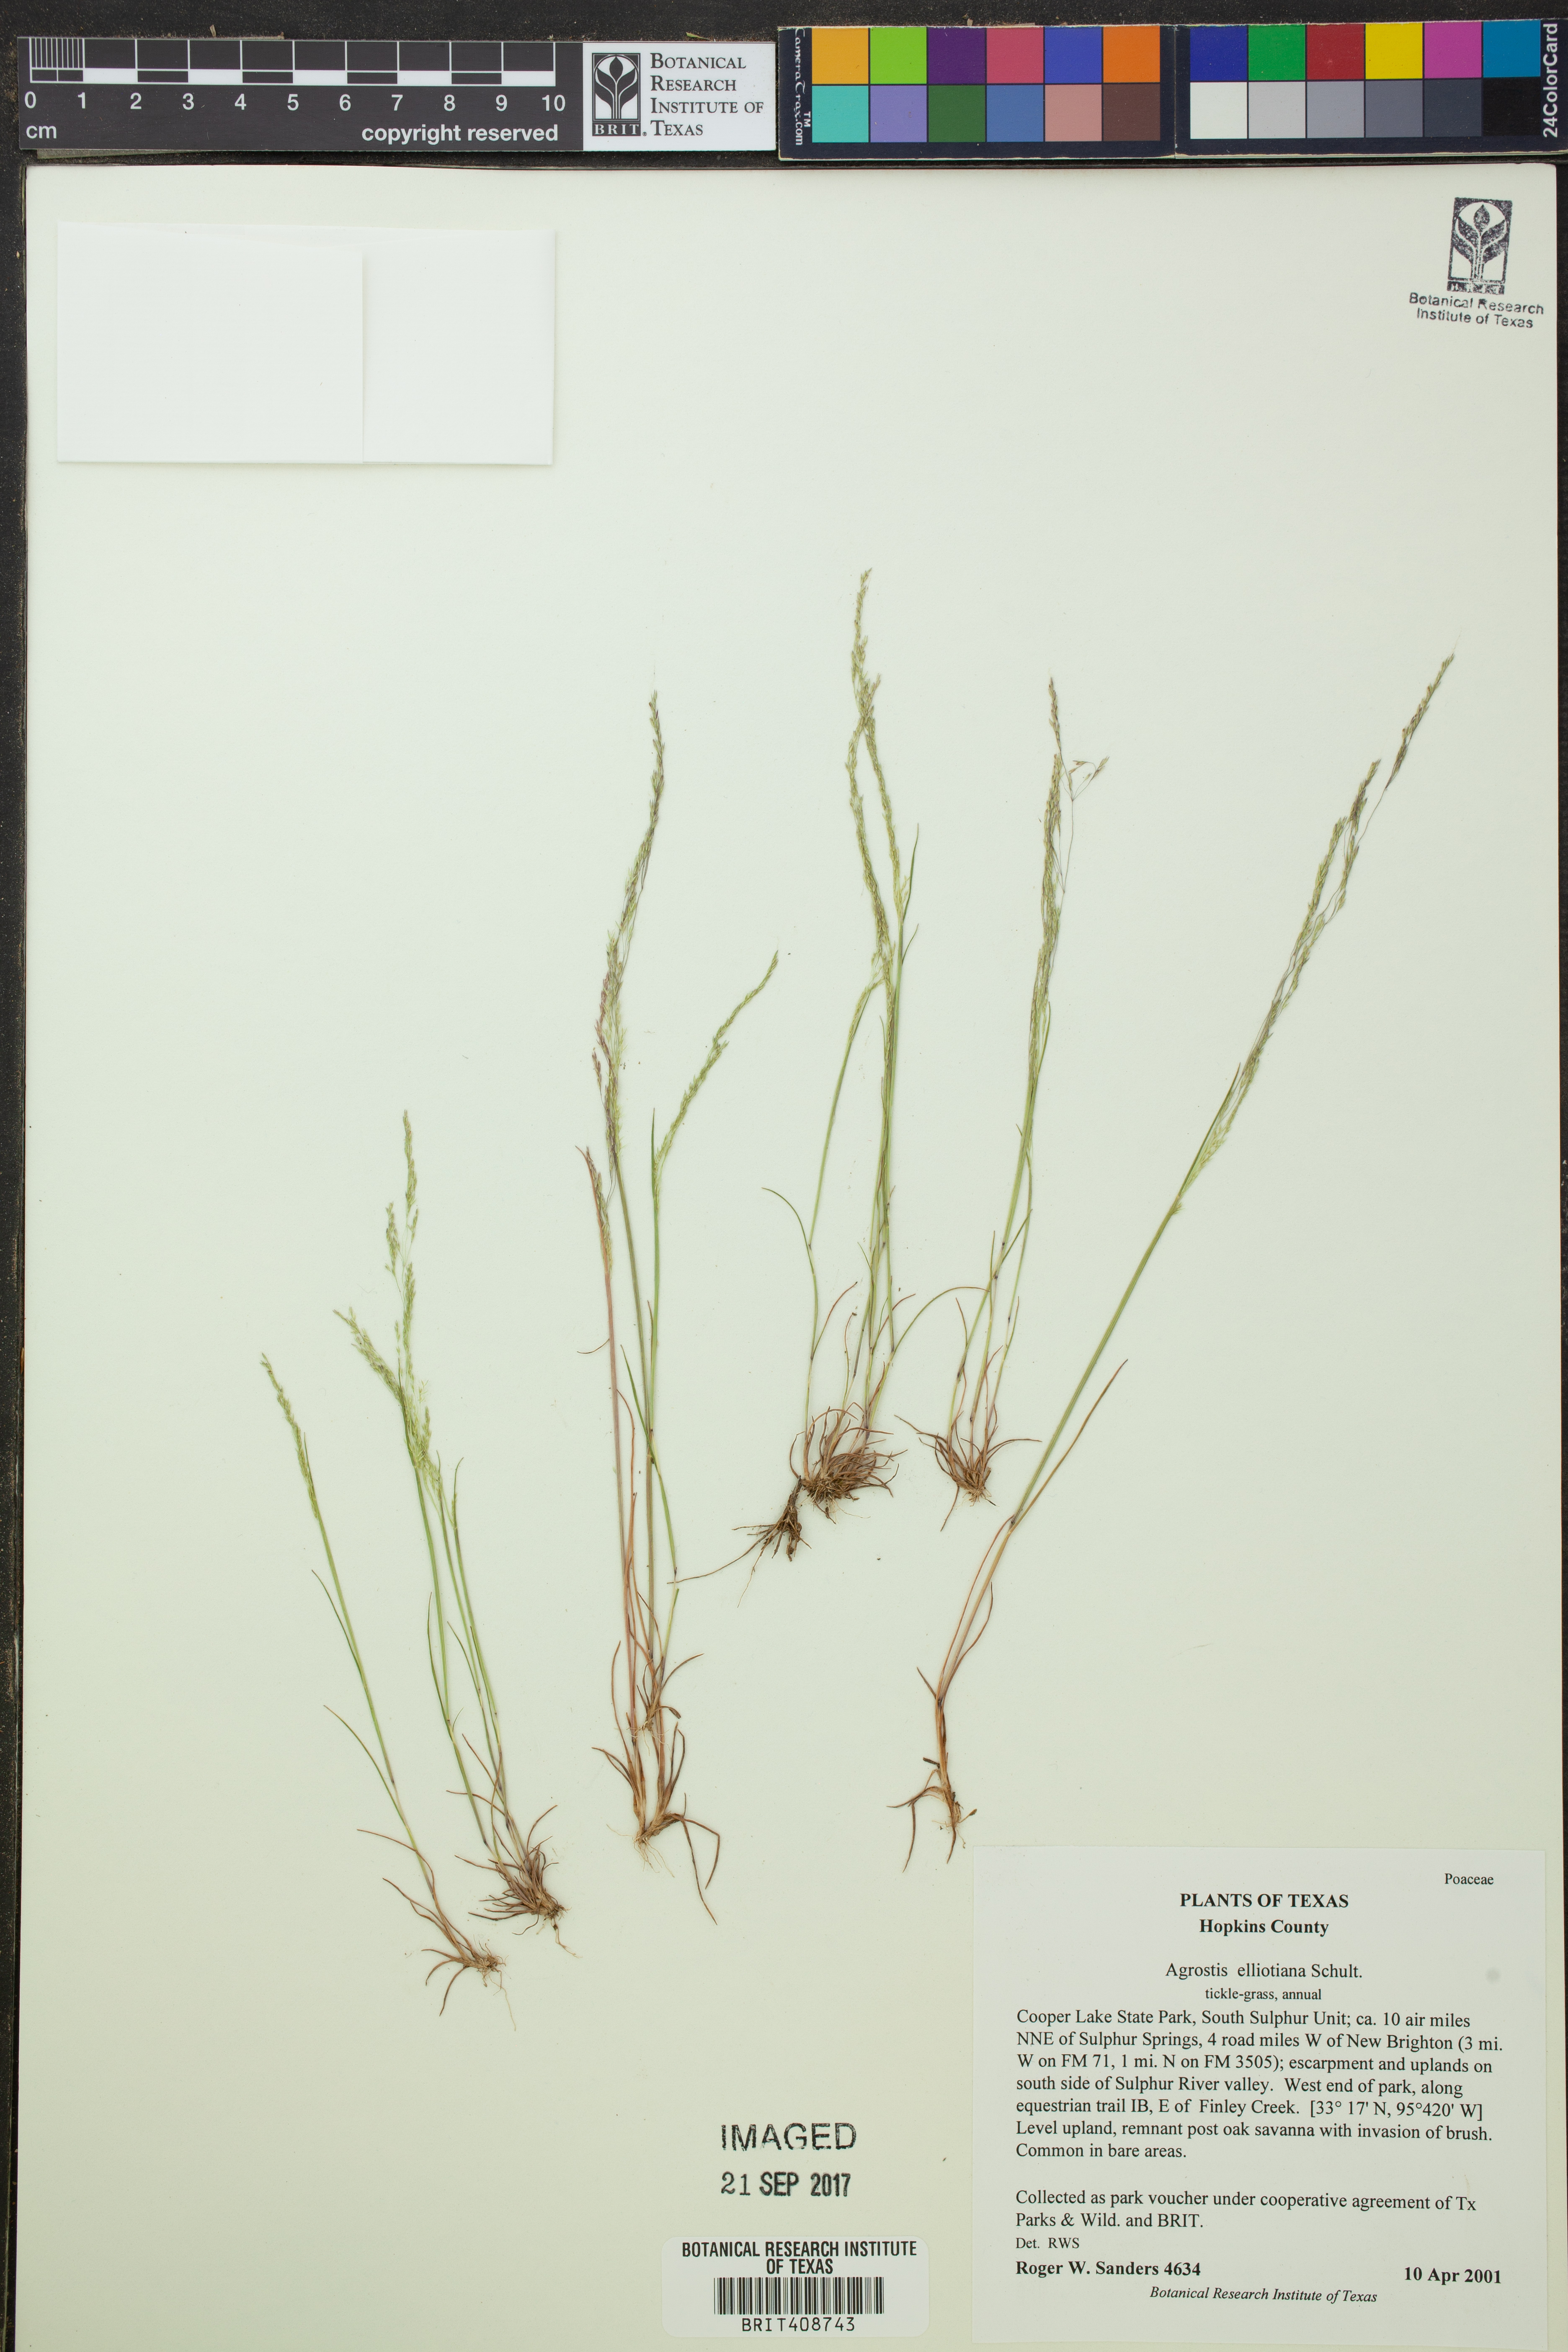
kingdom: Plantae
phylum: Tracheophyta
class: Liliopsida
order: Poales
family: Poaceae
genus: Agrostis
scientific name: Agrostis elliottiana
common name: Elliott's bent
